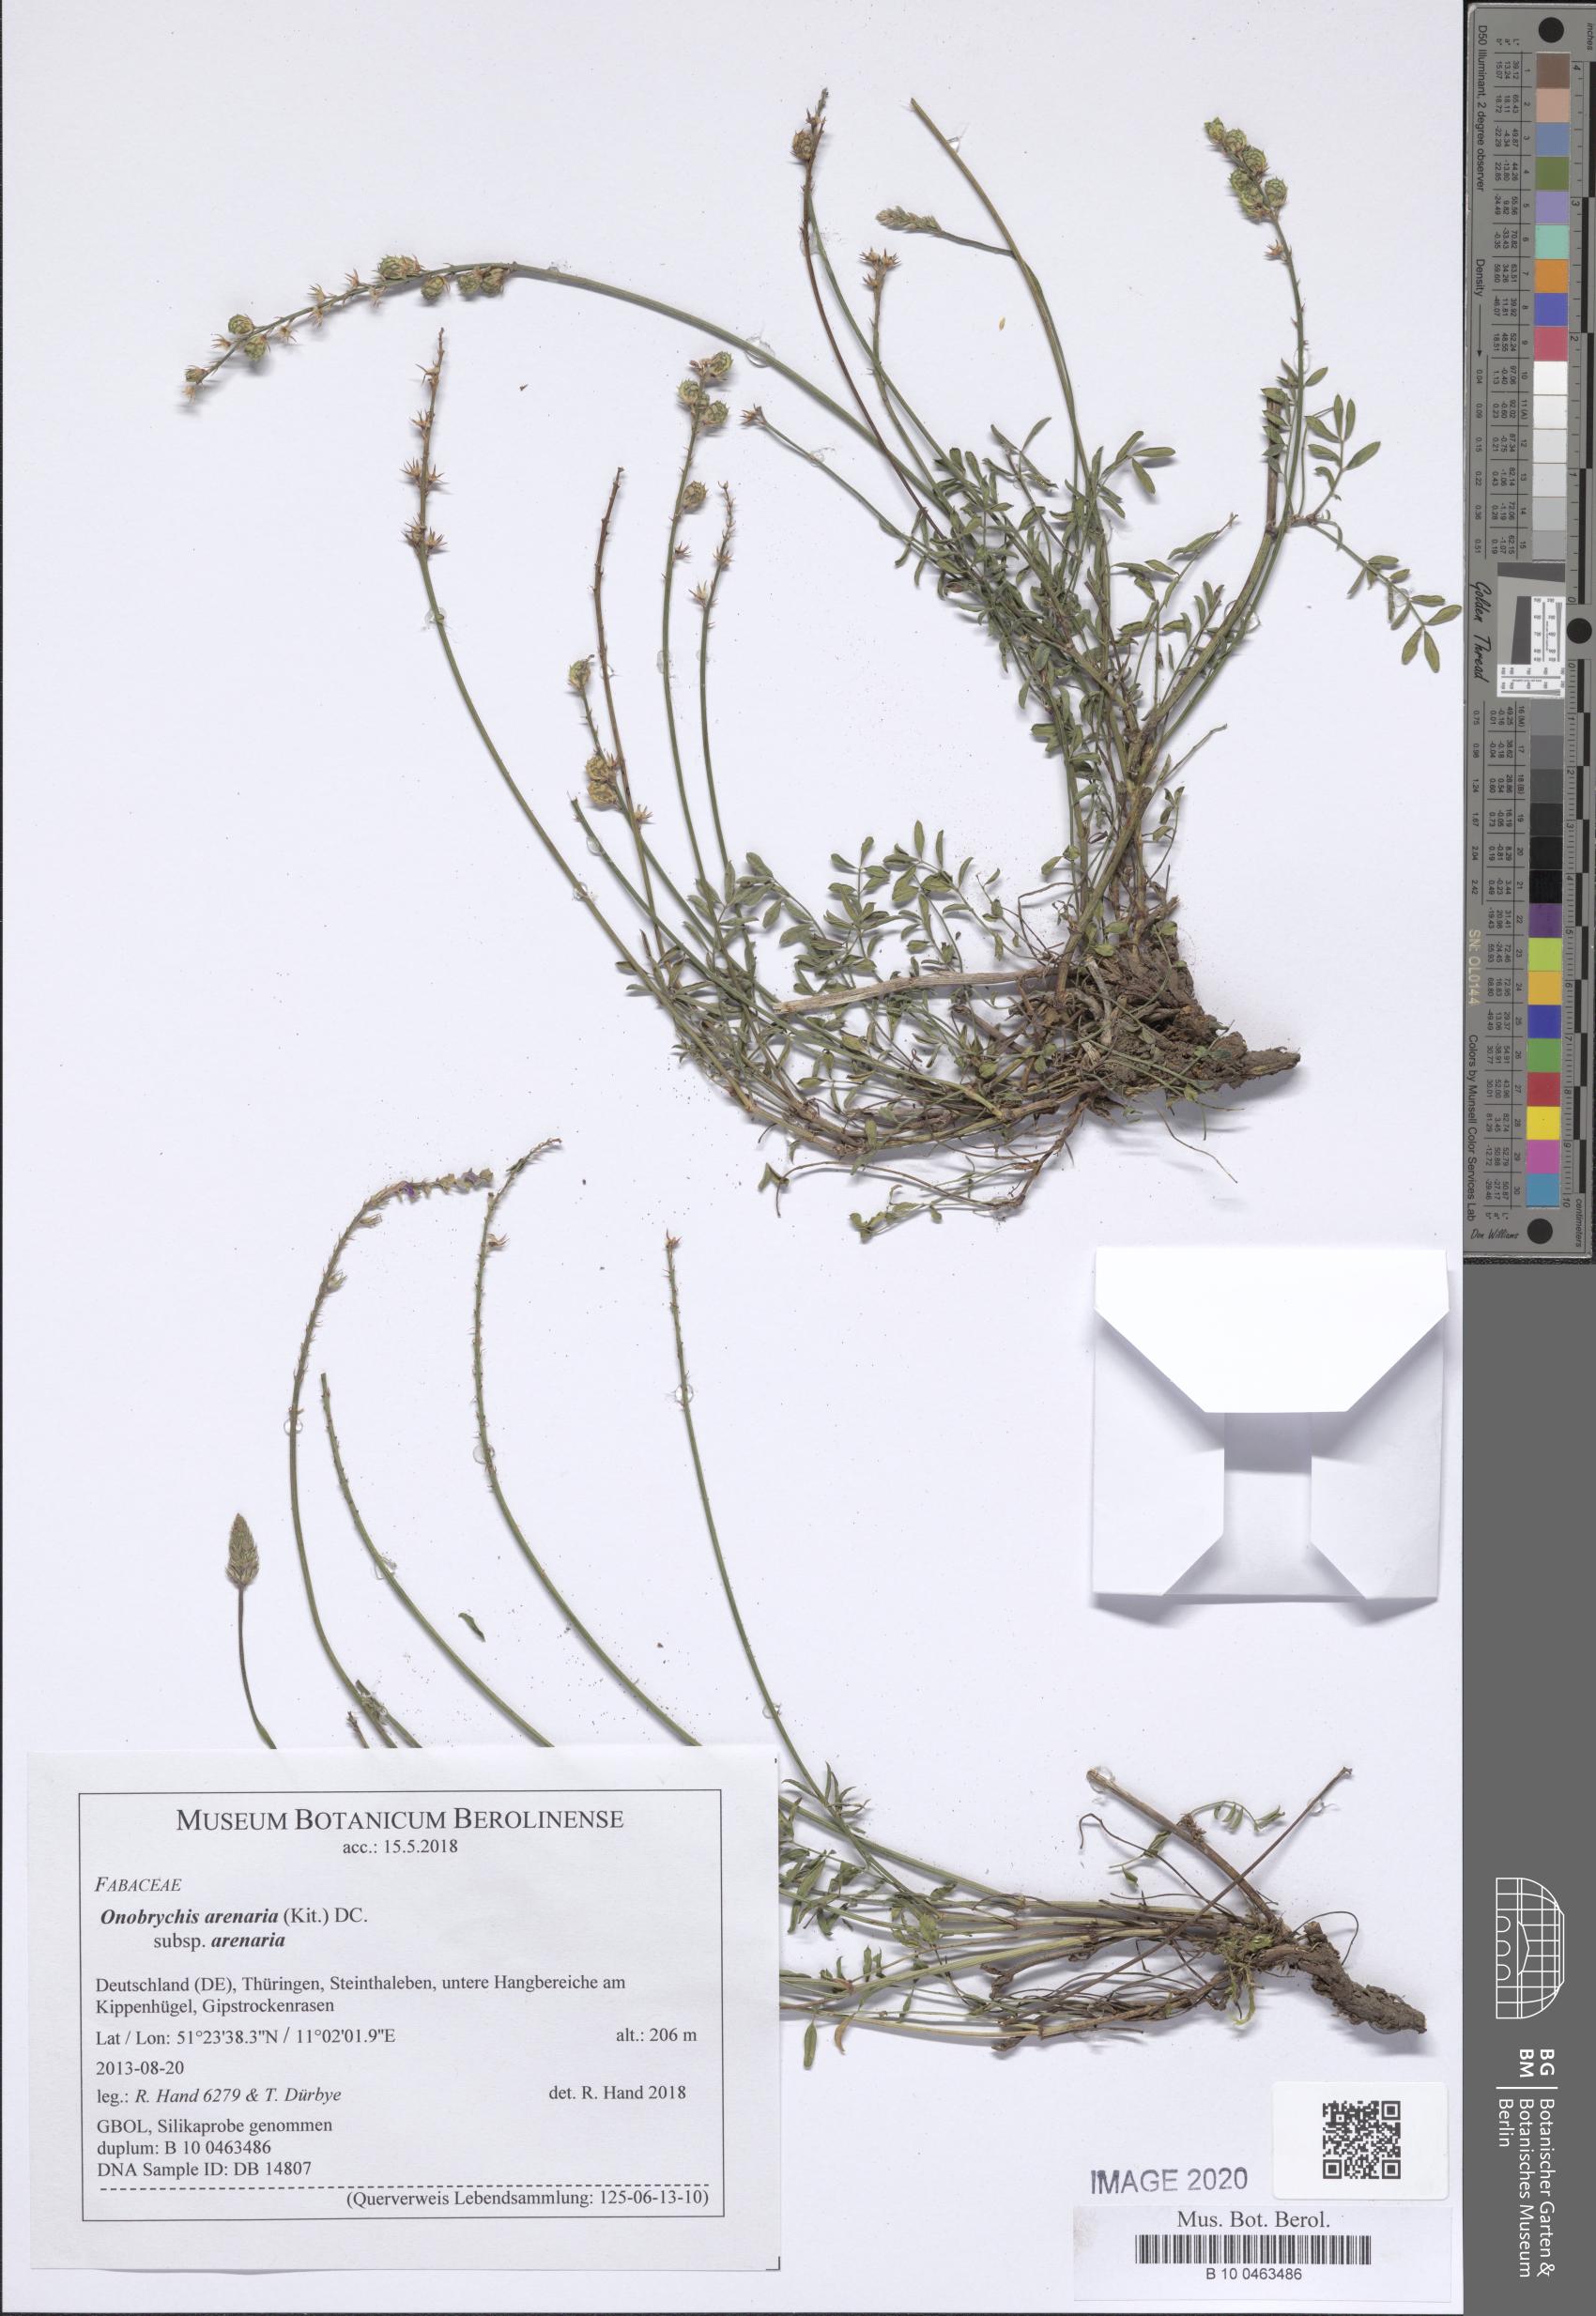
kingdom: Plantae
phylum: Tracheophyta
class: Magnoliopsida
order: Fabales
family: Fabaceae
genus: Onobrychis
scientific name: Onobrychis arenaria
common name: Sand esparcet
